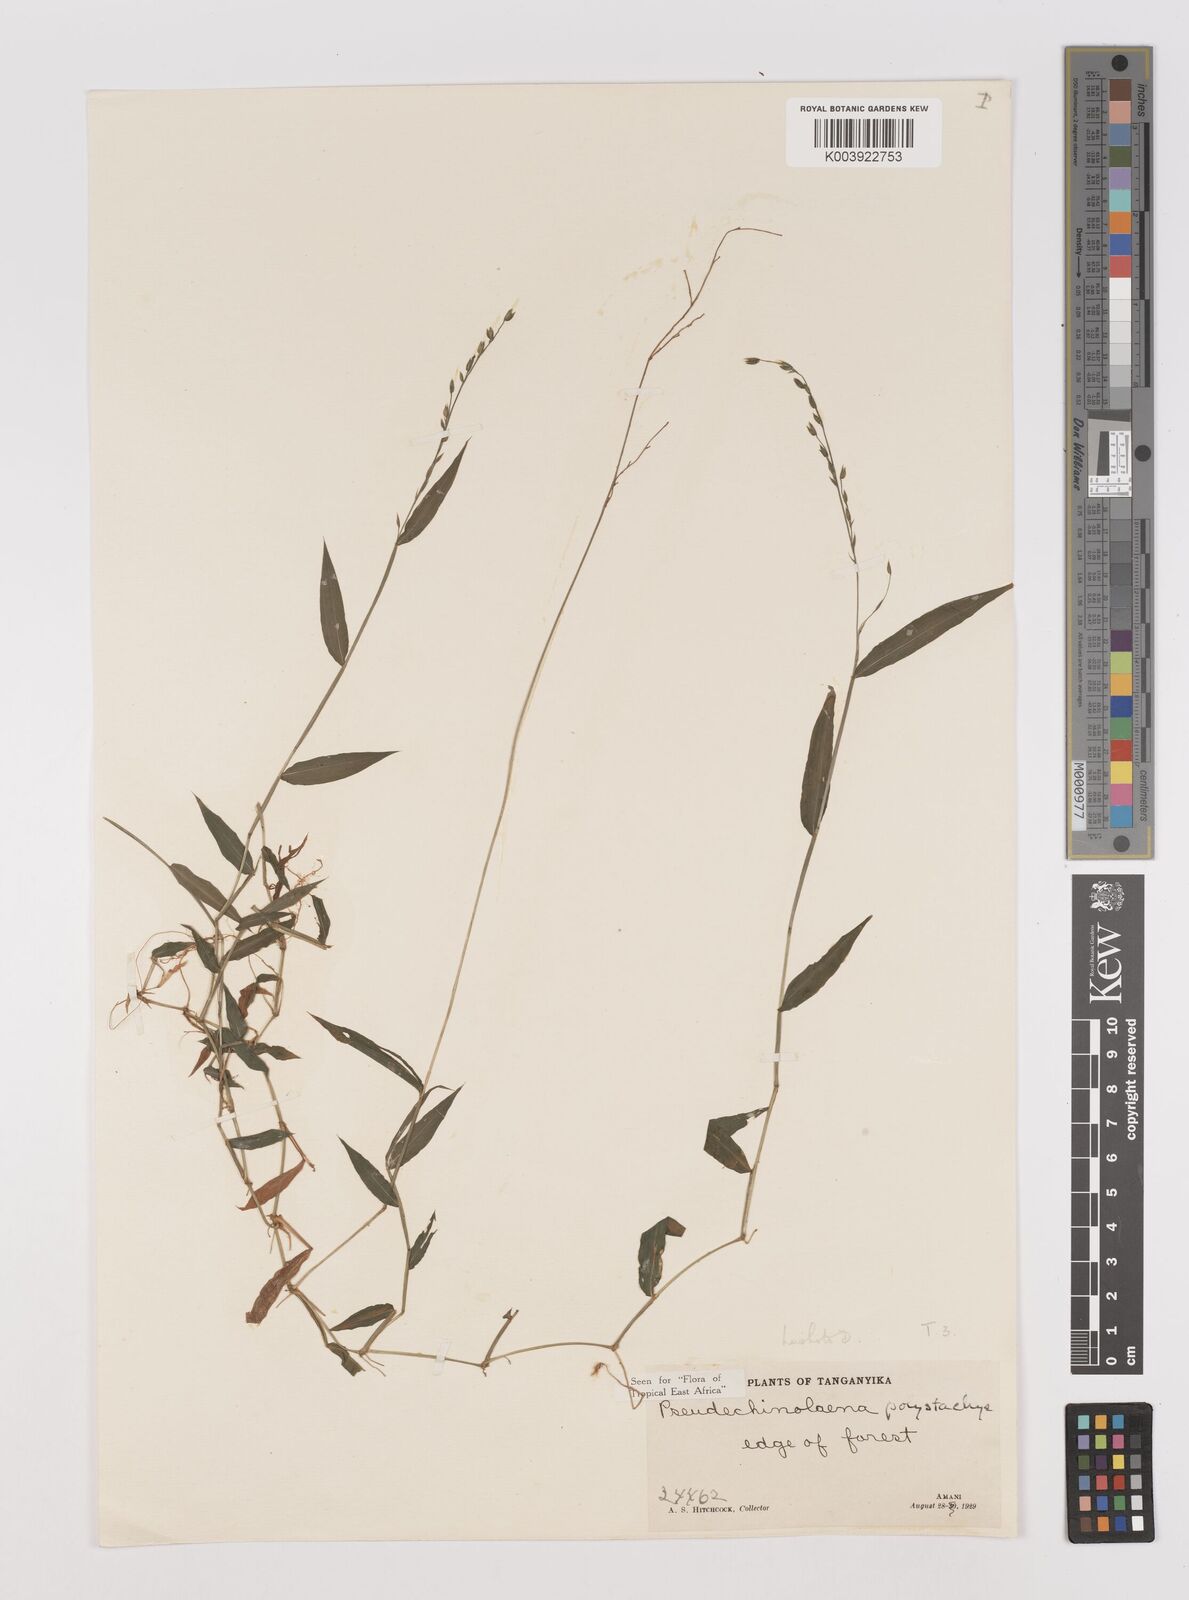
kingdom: Plantae
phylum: Tracheophyta
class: Liliopsida
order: Poales
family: Poaceae
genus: Pseudechinolaena
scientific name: Pseudechinolaena polystachya
